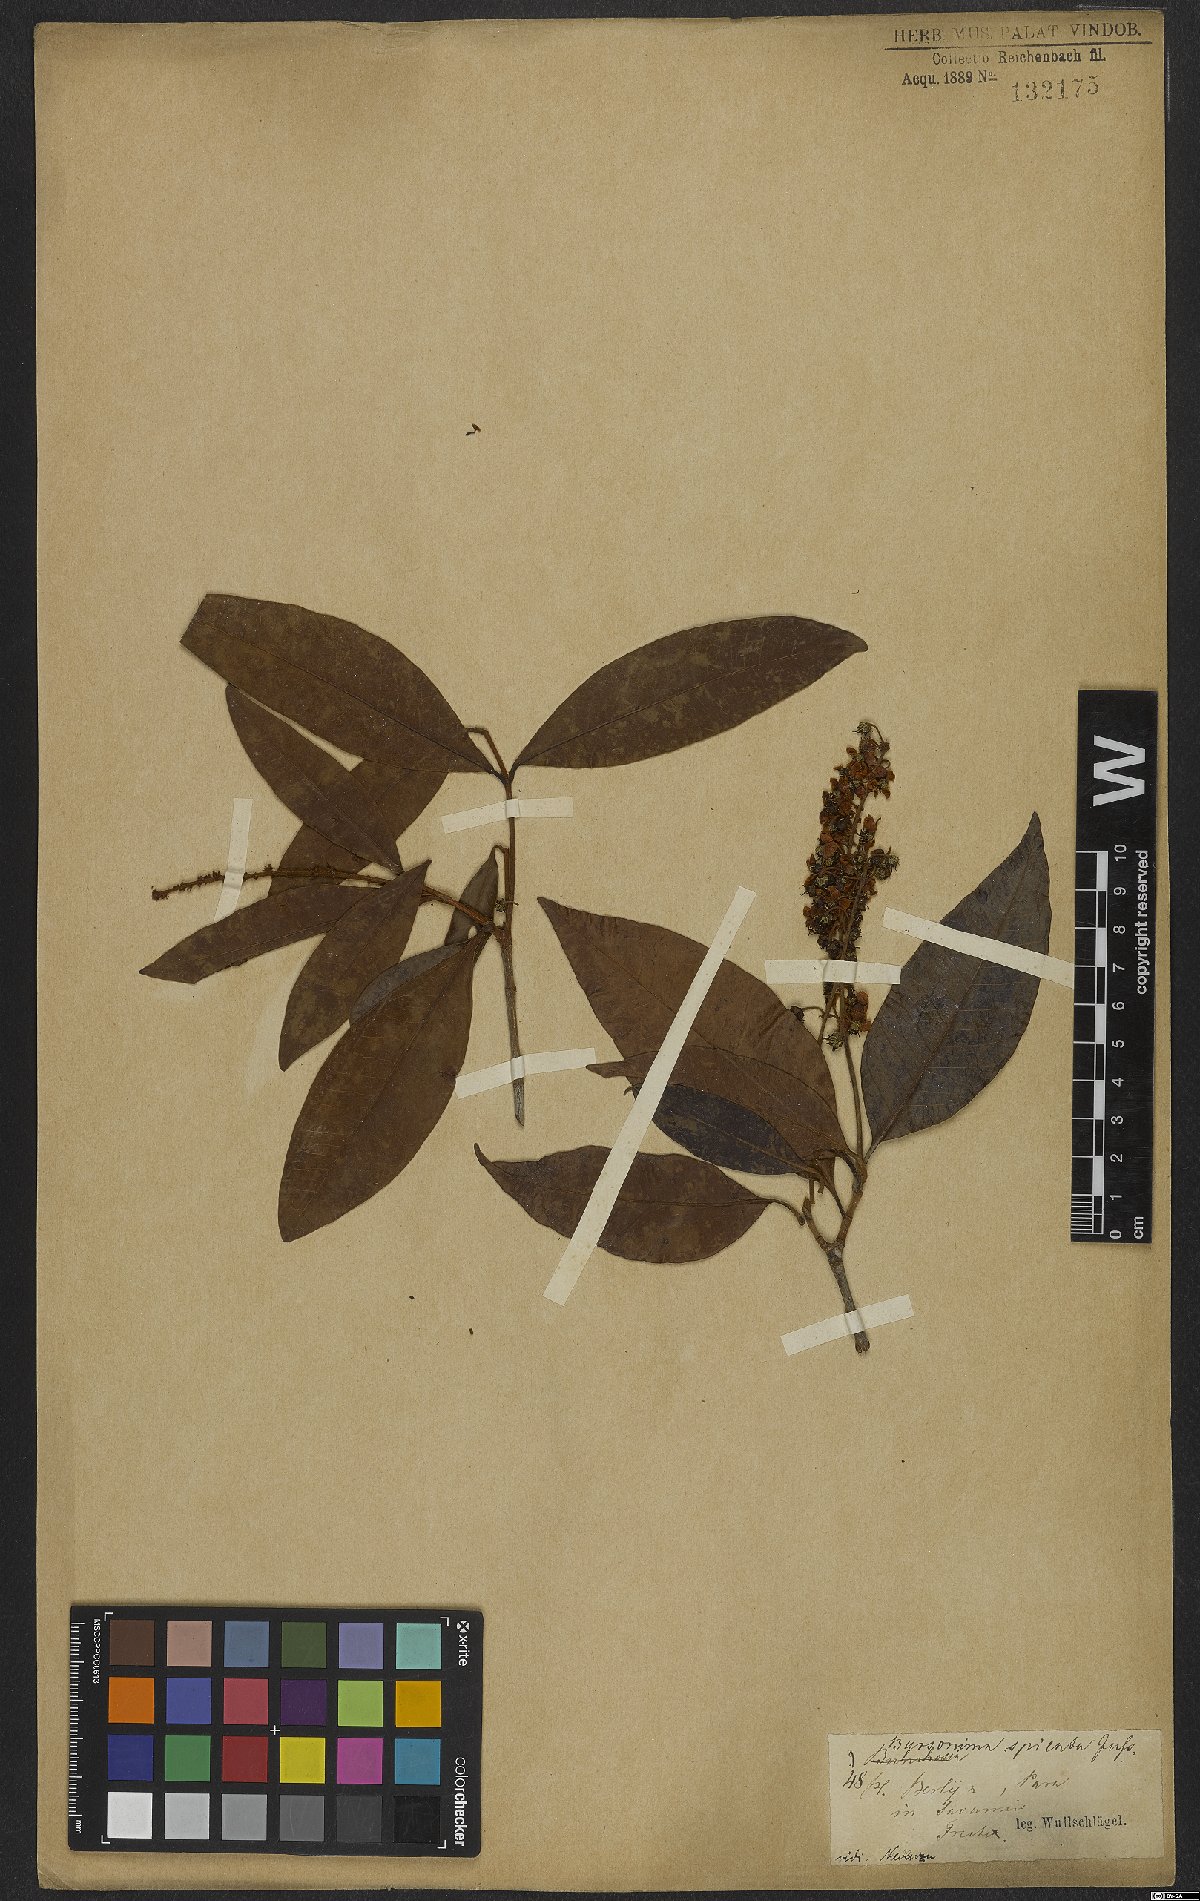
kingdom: Plantae
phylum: Tracheophyta
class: Magnoliopsida
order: Malpighiales
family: Malpighiaceae
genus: Byrsonima
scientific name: Byrsonima crassifolia
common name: Golden spoon
